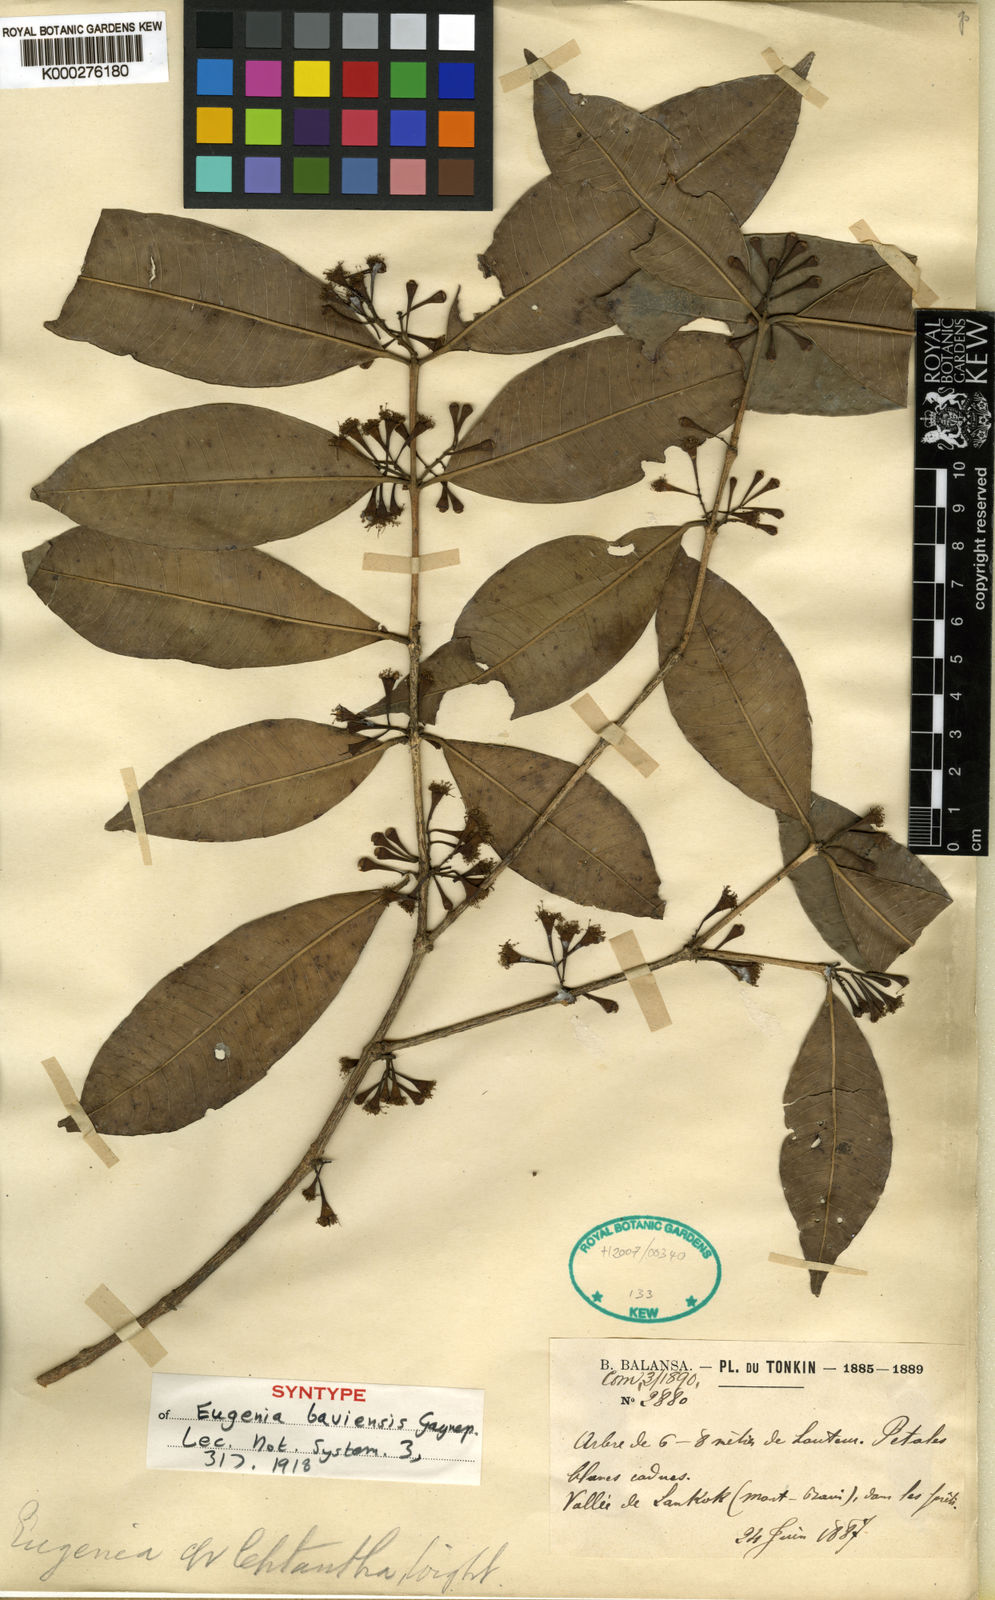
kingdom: Plantae
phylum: Tracheophyta
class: Magnoliopsida
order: Myrtales
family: Myrtaceae
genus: Syzygium
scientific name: Syzygium claviflorum
